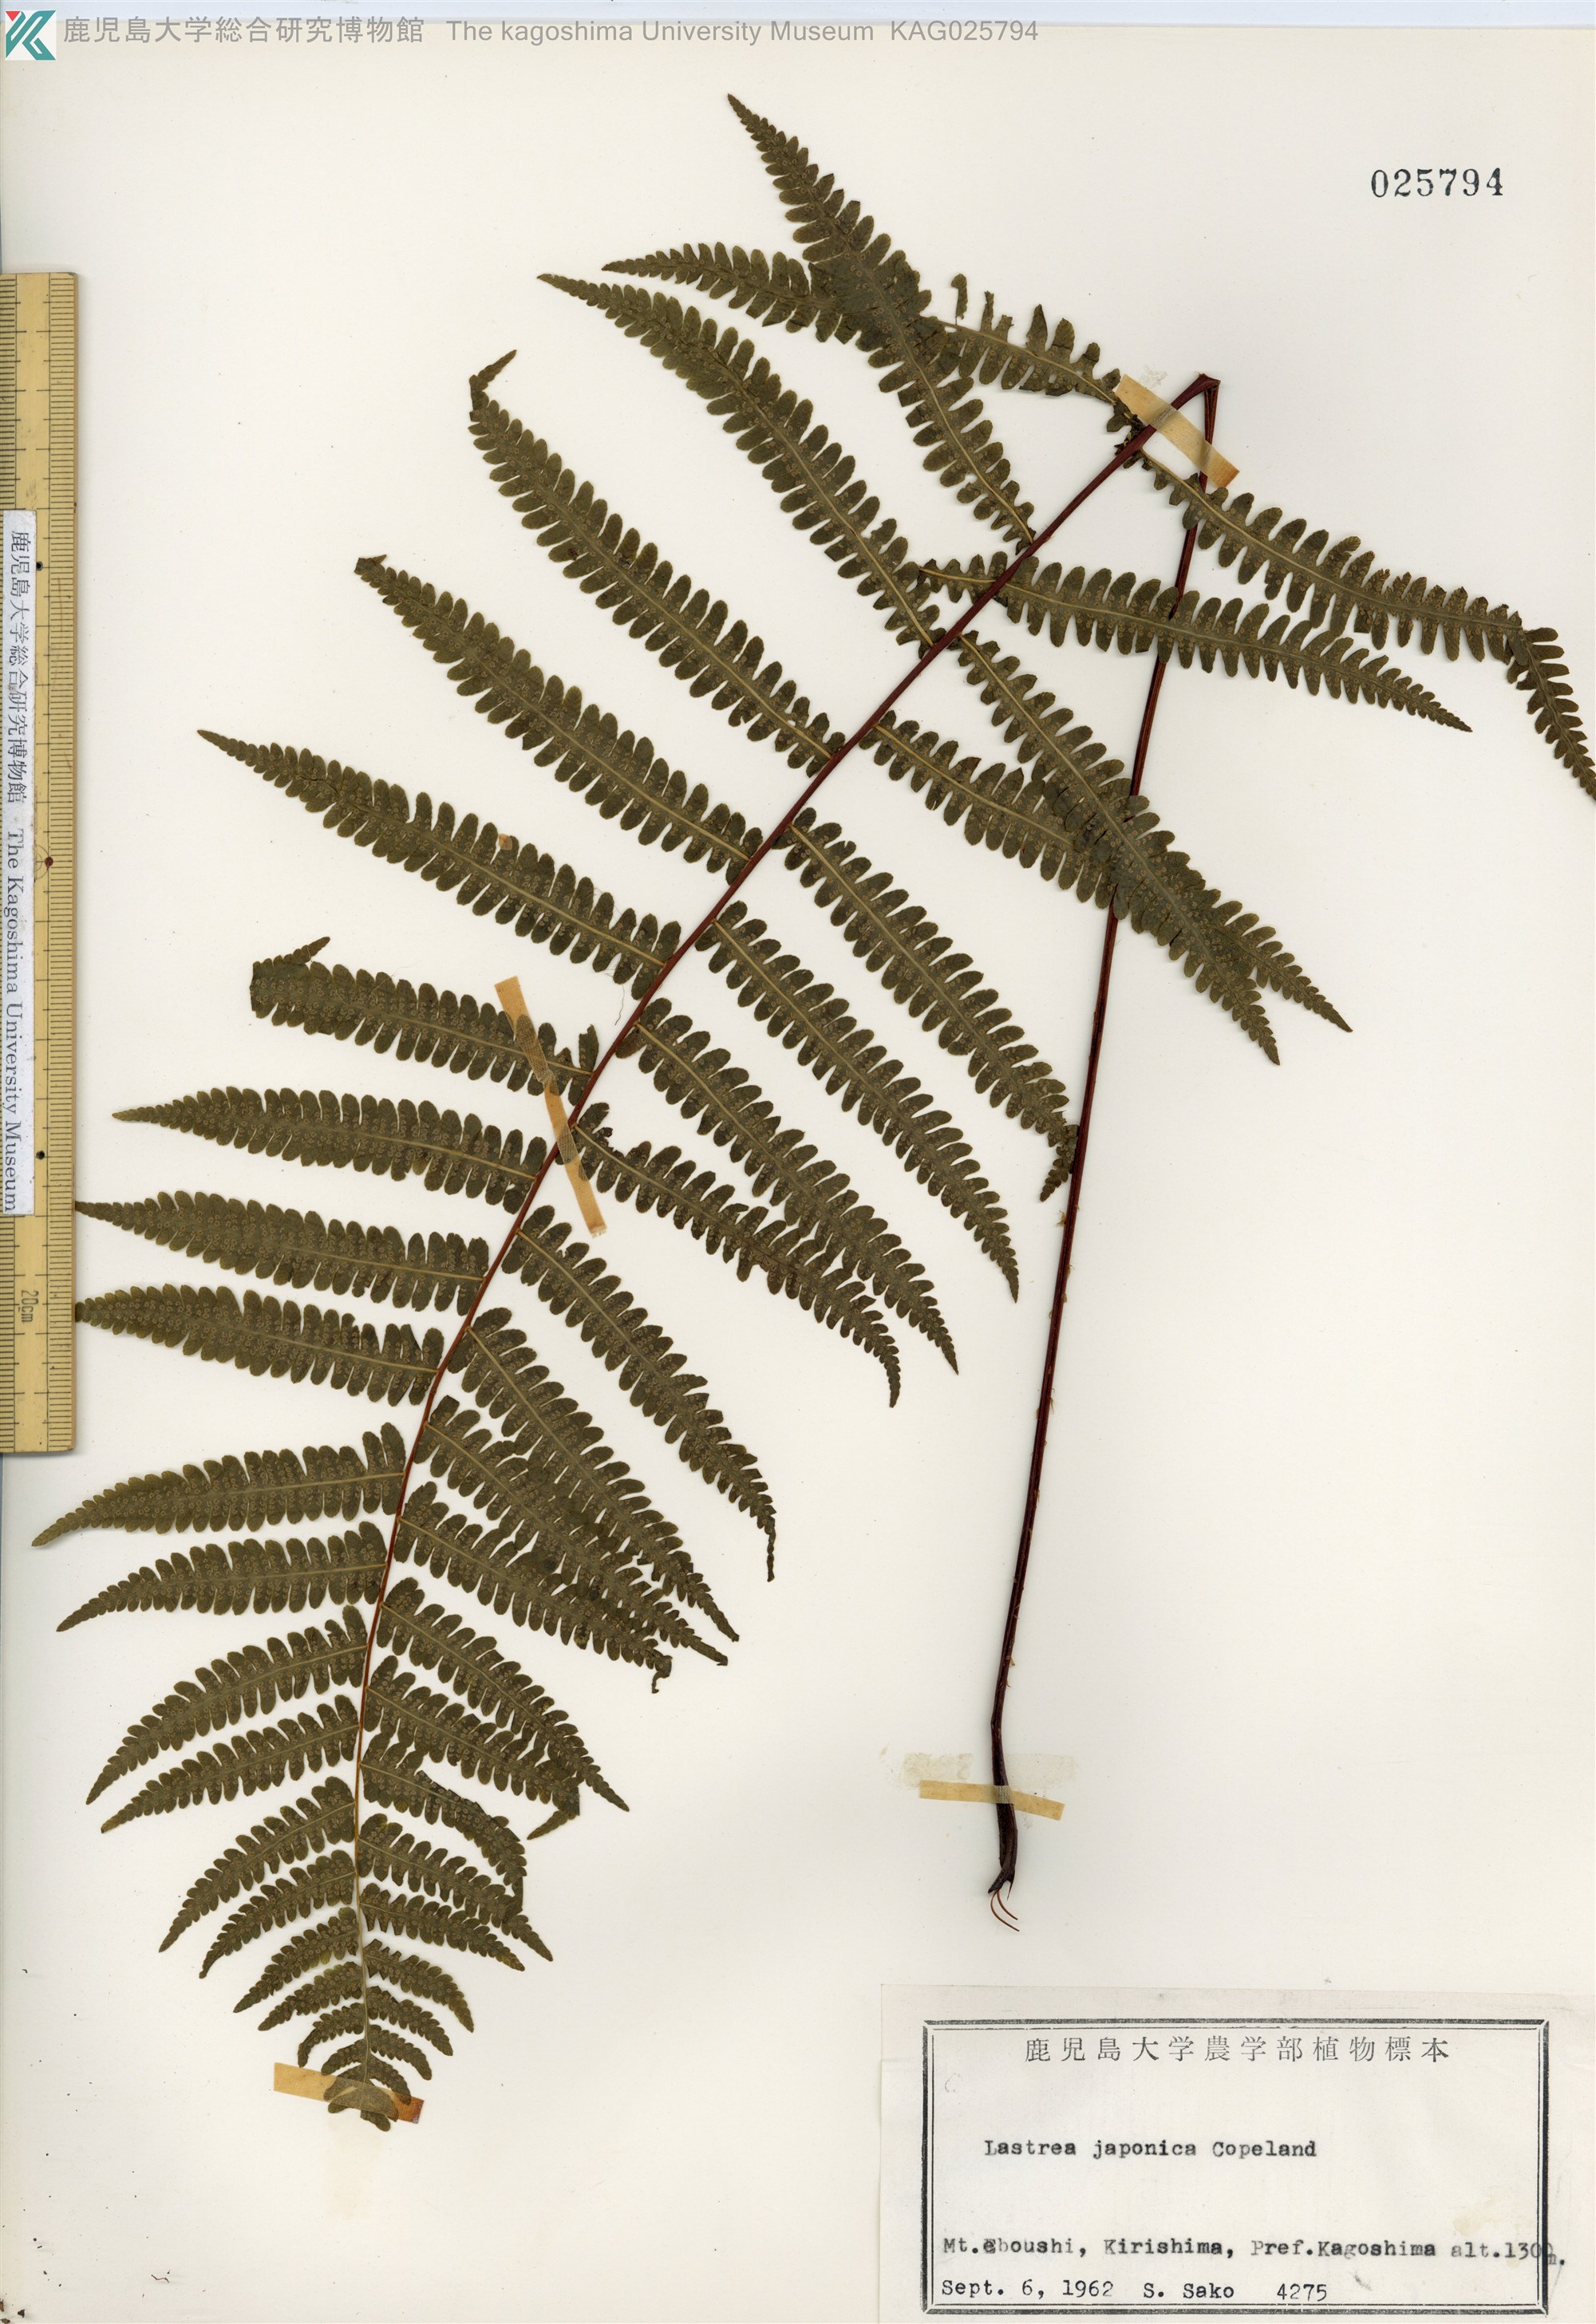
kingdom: Plantae
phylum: Tracheophyta
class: Polypodiopsida
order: Polypodiales
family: Thelypteridaceae
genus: Coryphopteris
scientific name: Coryphopteris japonica
